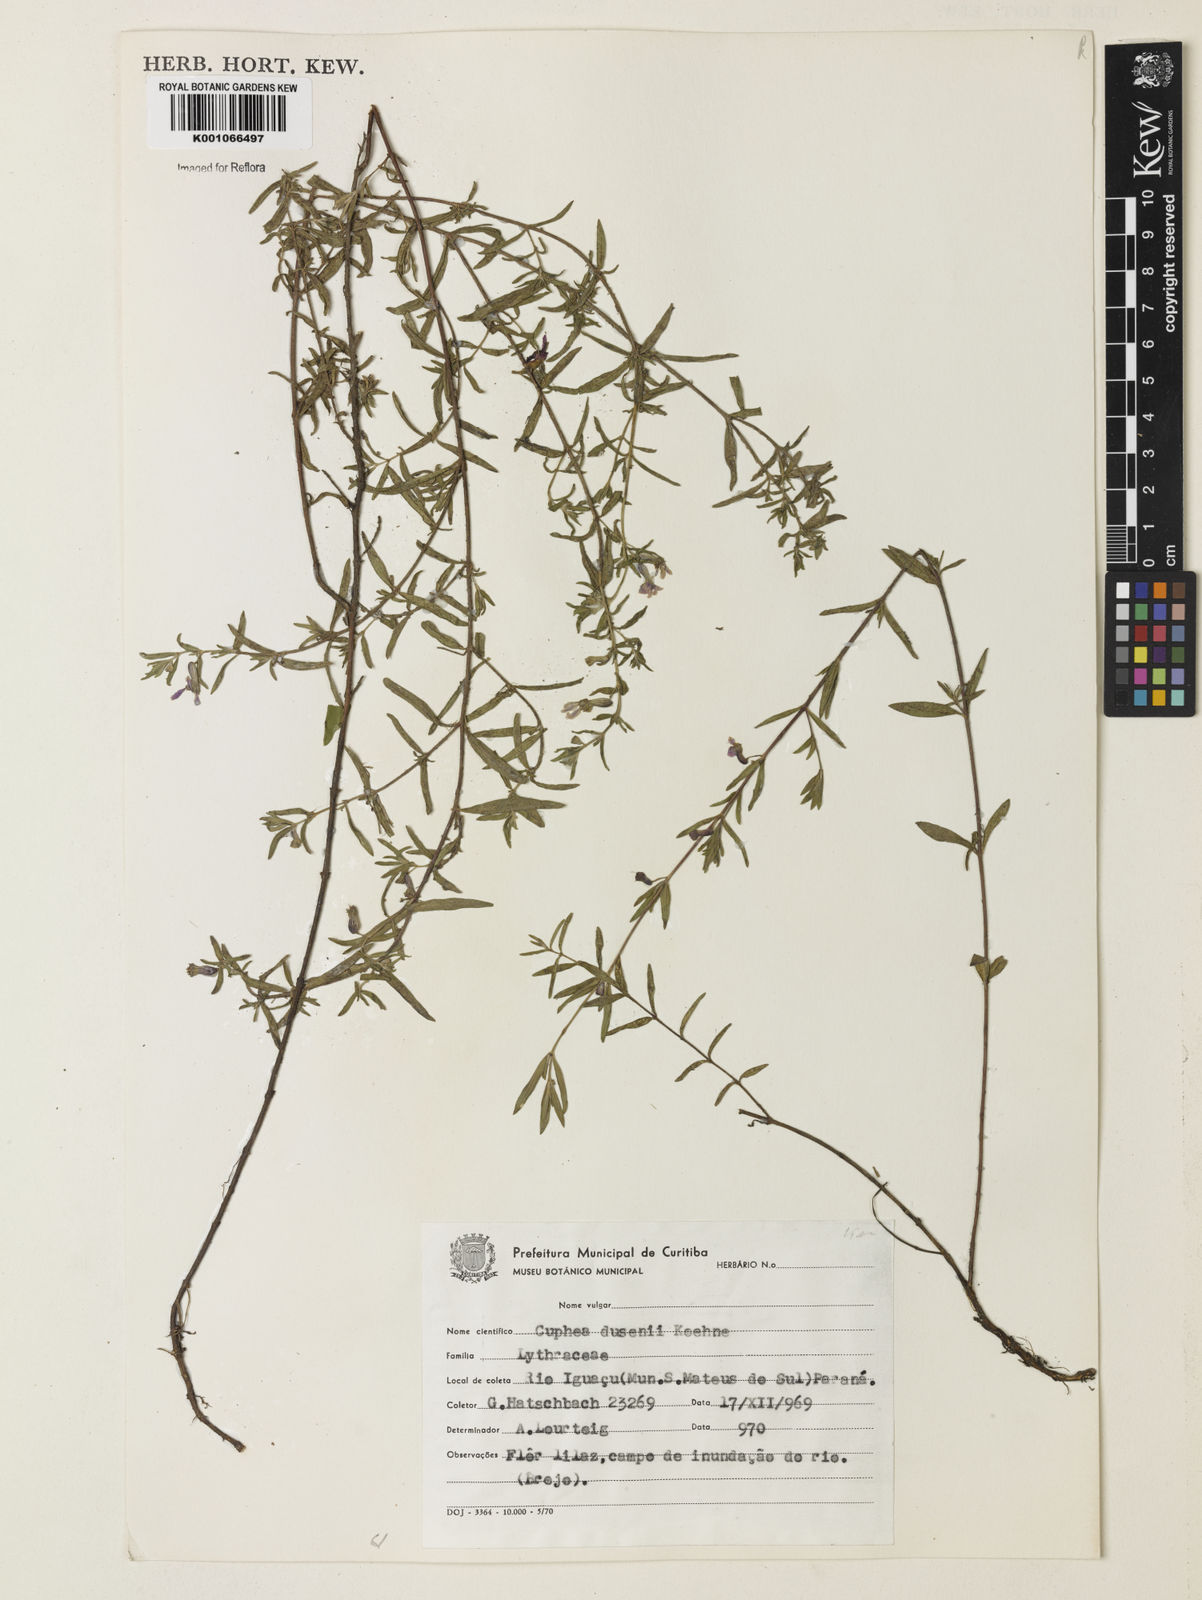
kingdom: Plantae
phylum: Tracheophyta
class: Magnoliopsida
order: Myrtales
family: Lythraceae
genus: Cuphea
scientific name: Cuphea dusenii
